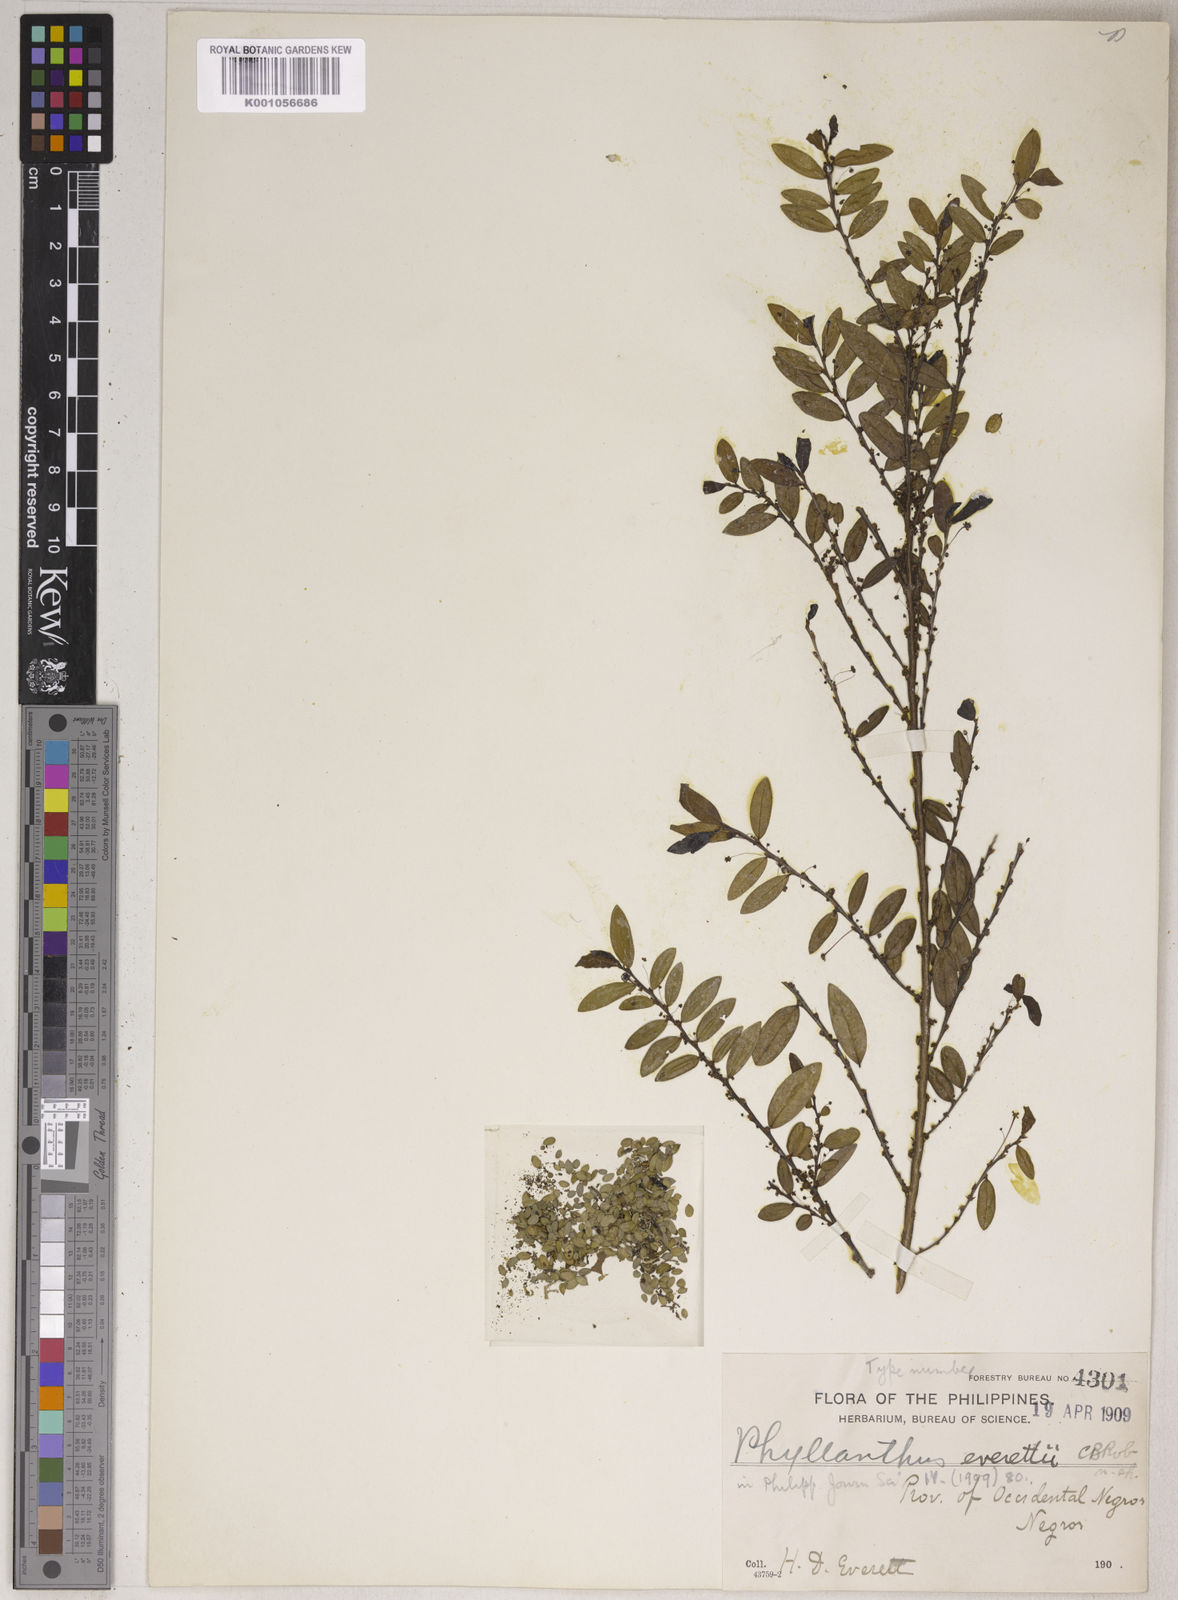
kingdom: Plantae
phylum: Tracheophyta
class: Magnoliopsida
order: Malpighiales
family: Phyllanthaceae
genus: Phyllanthus
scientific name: Phyllanthus everettii
